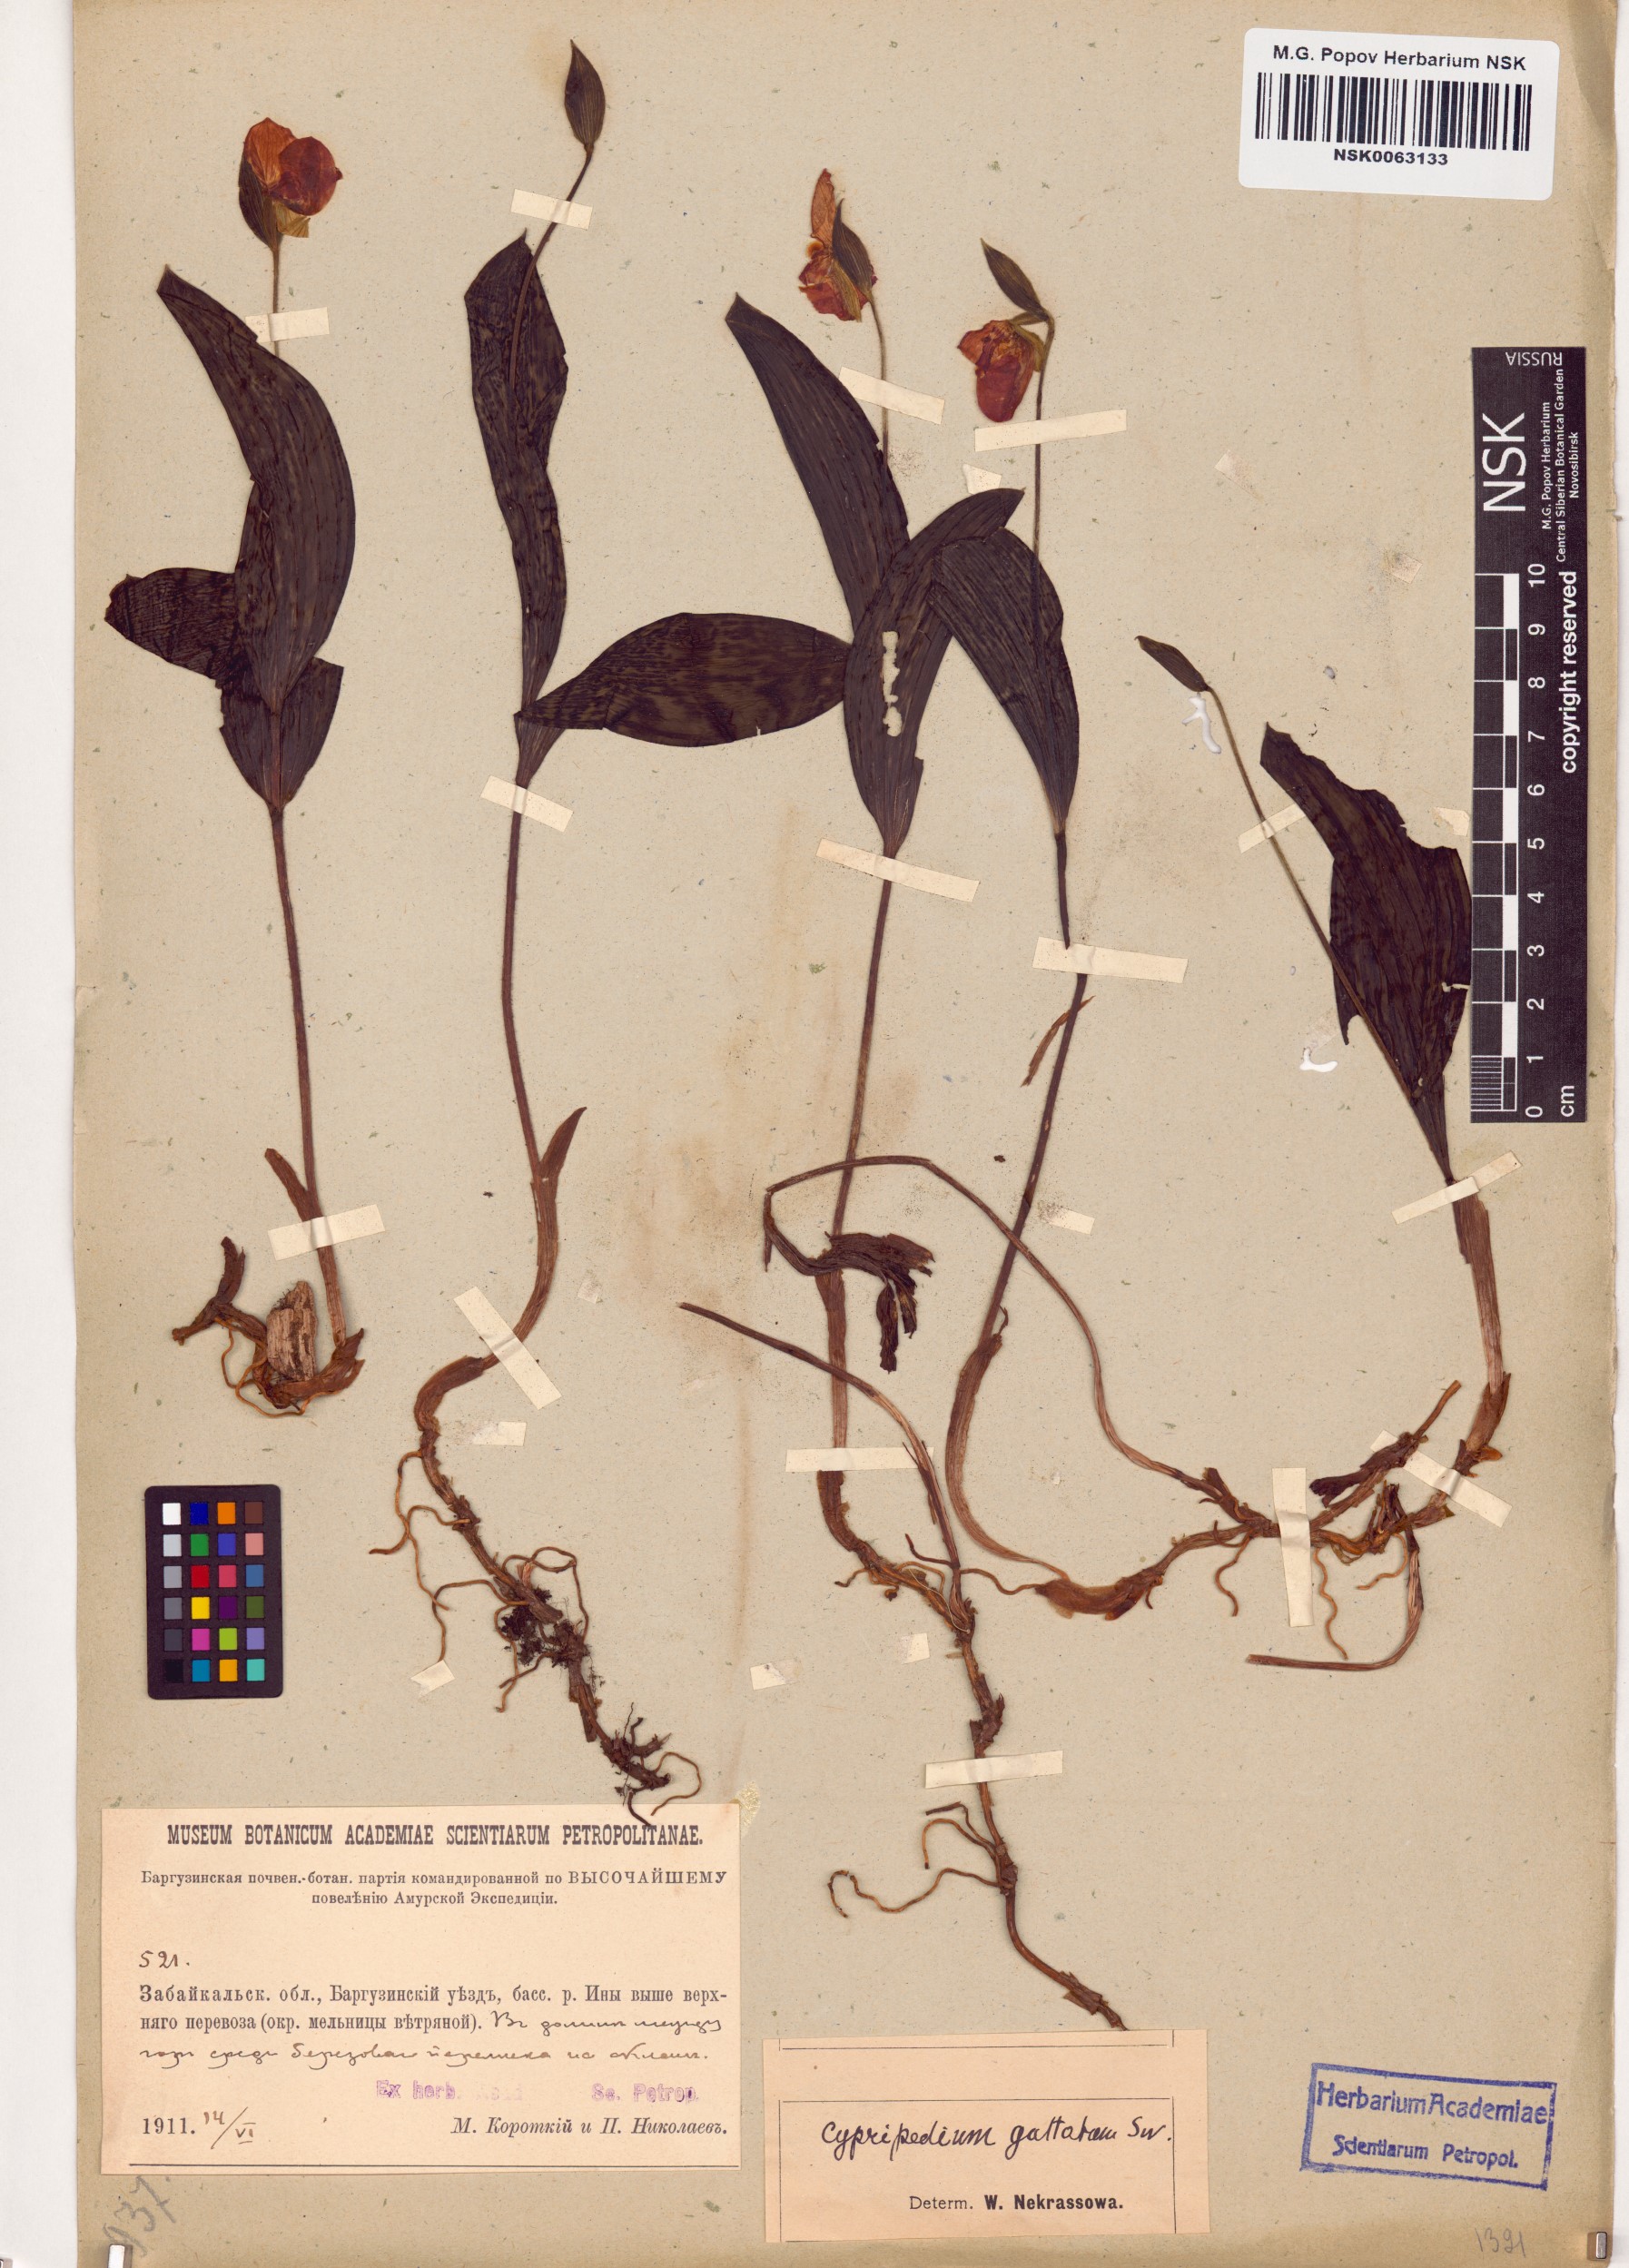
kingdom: Plantae
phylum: Tracheophyta
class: Liliopsida
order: Asparagales
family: Orchidaceae
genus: Cypripedium
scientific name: Cypripedium guttatum
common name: Pink lady slipper
